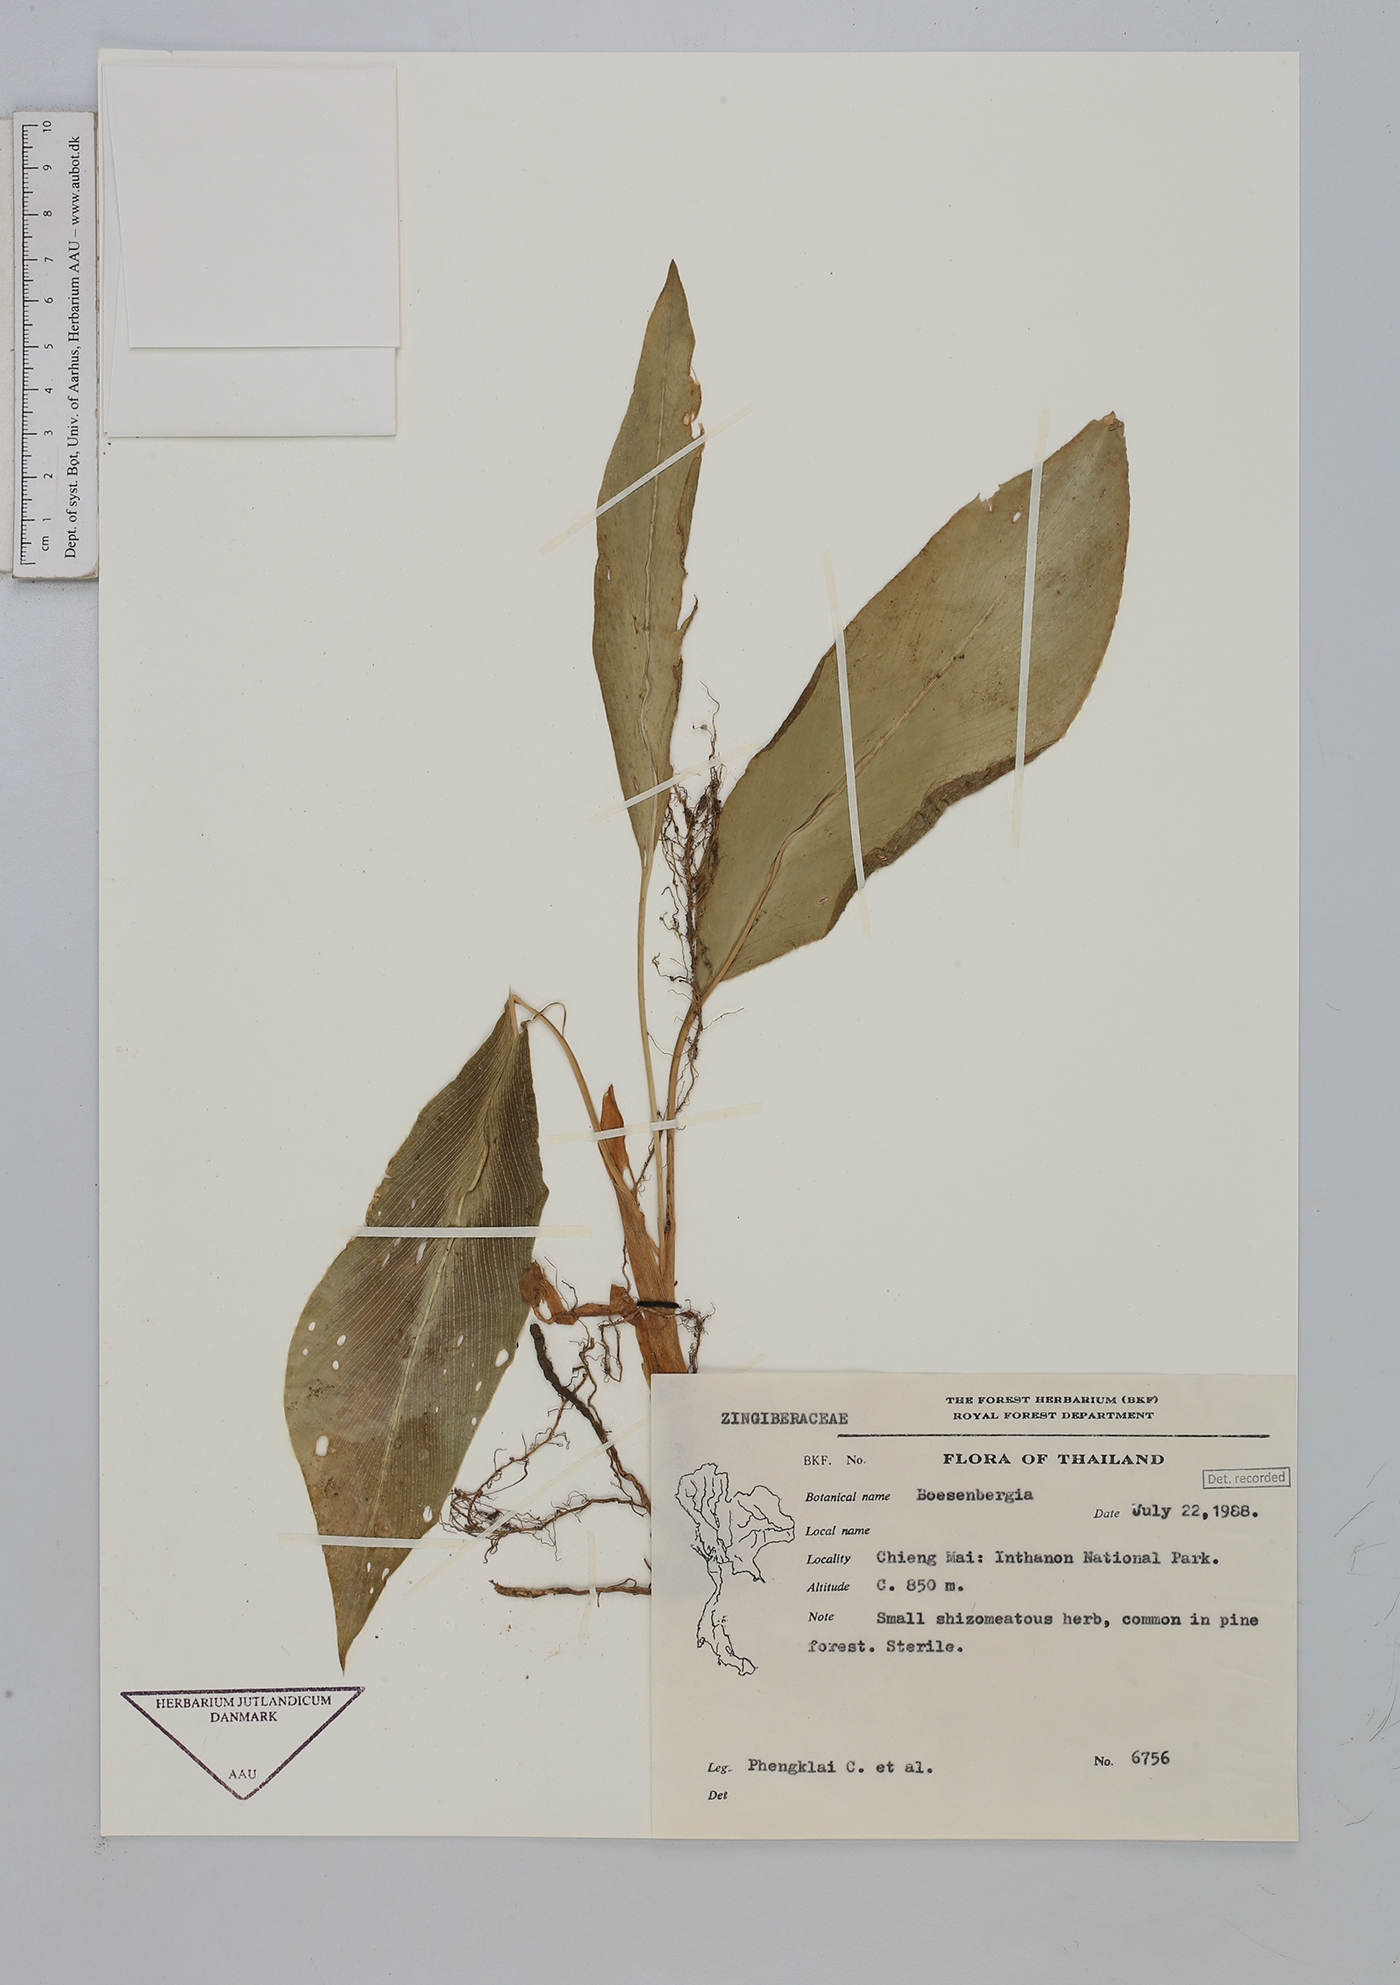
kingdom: Plantae
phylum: Tracheophyta
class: Liliopsida
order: Zingiberales
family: Zingiberaceae
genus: Boesenbergia
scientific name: Boesenbergia
